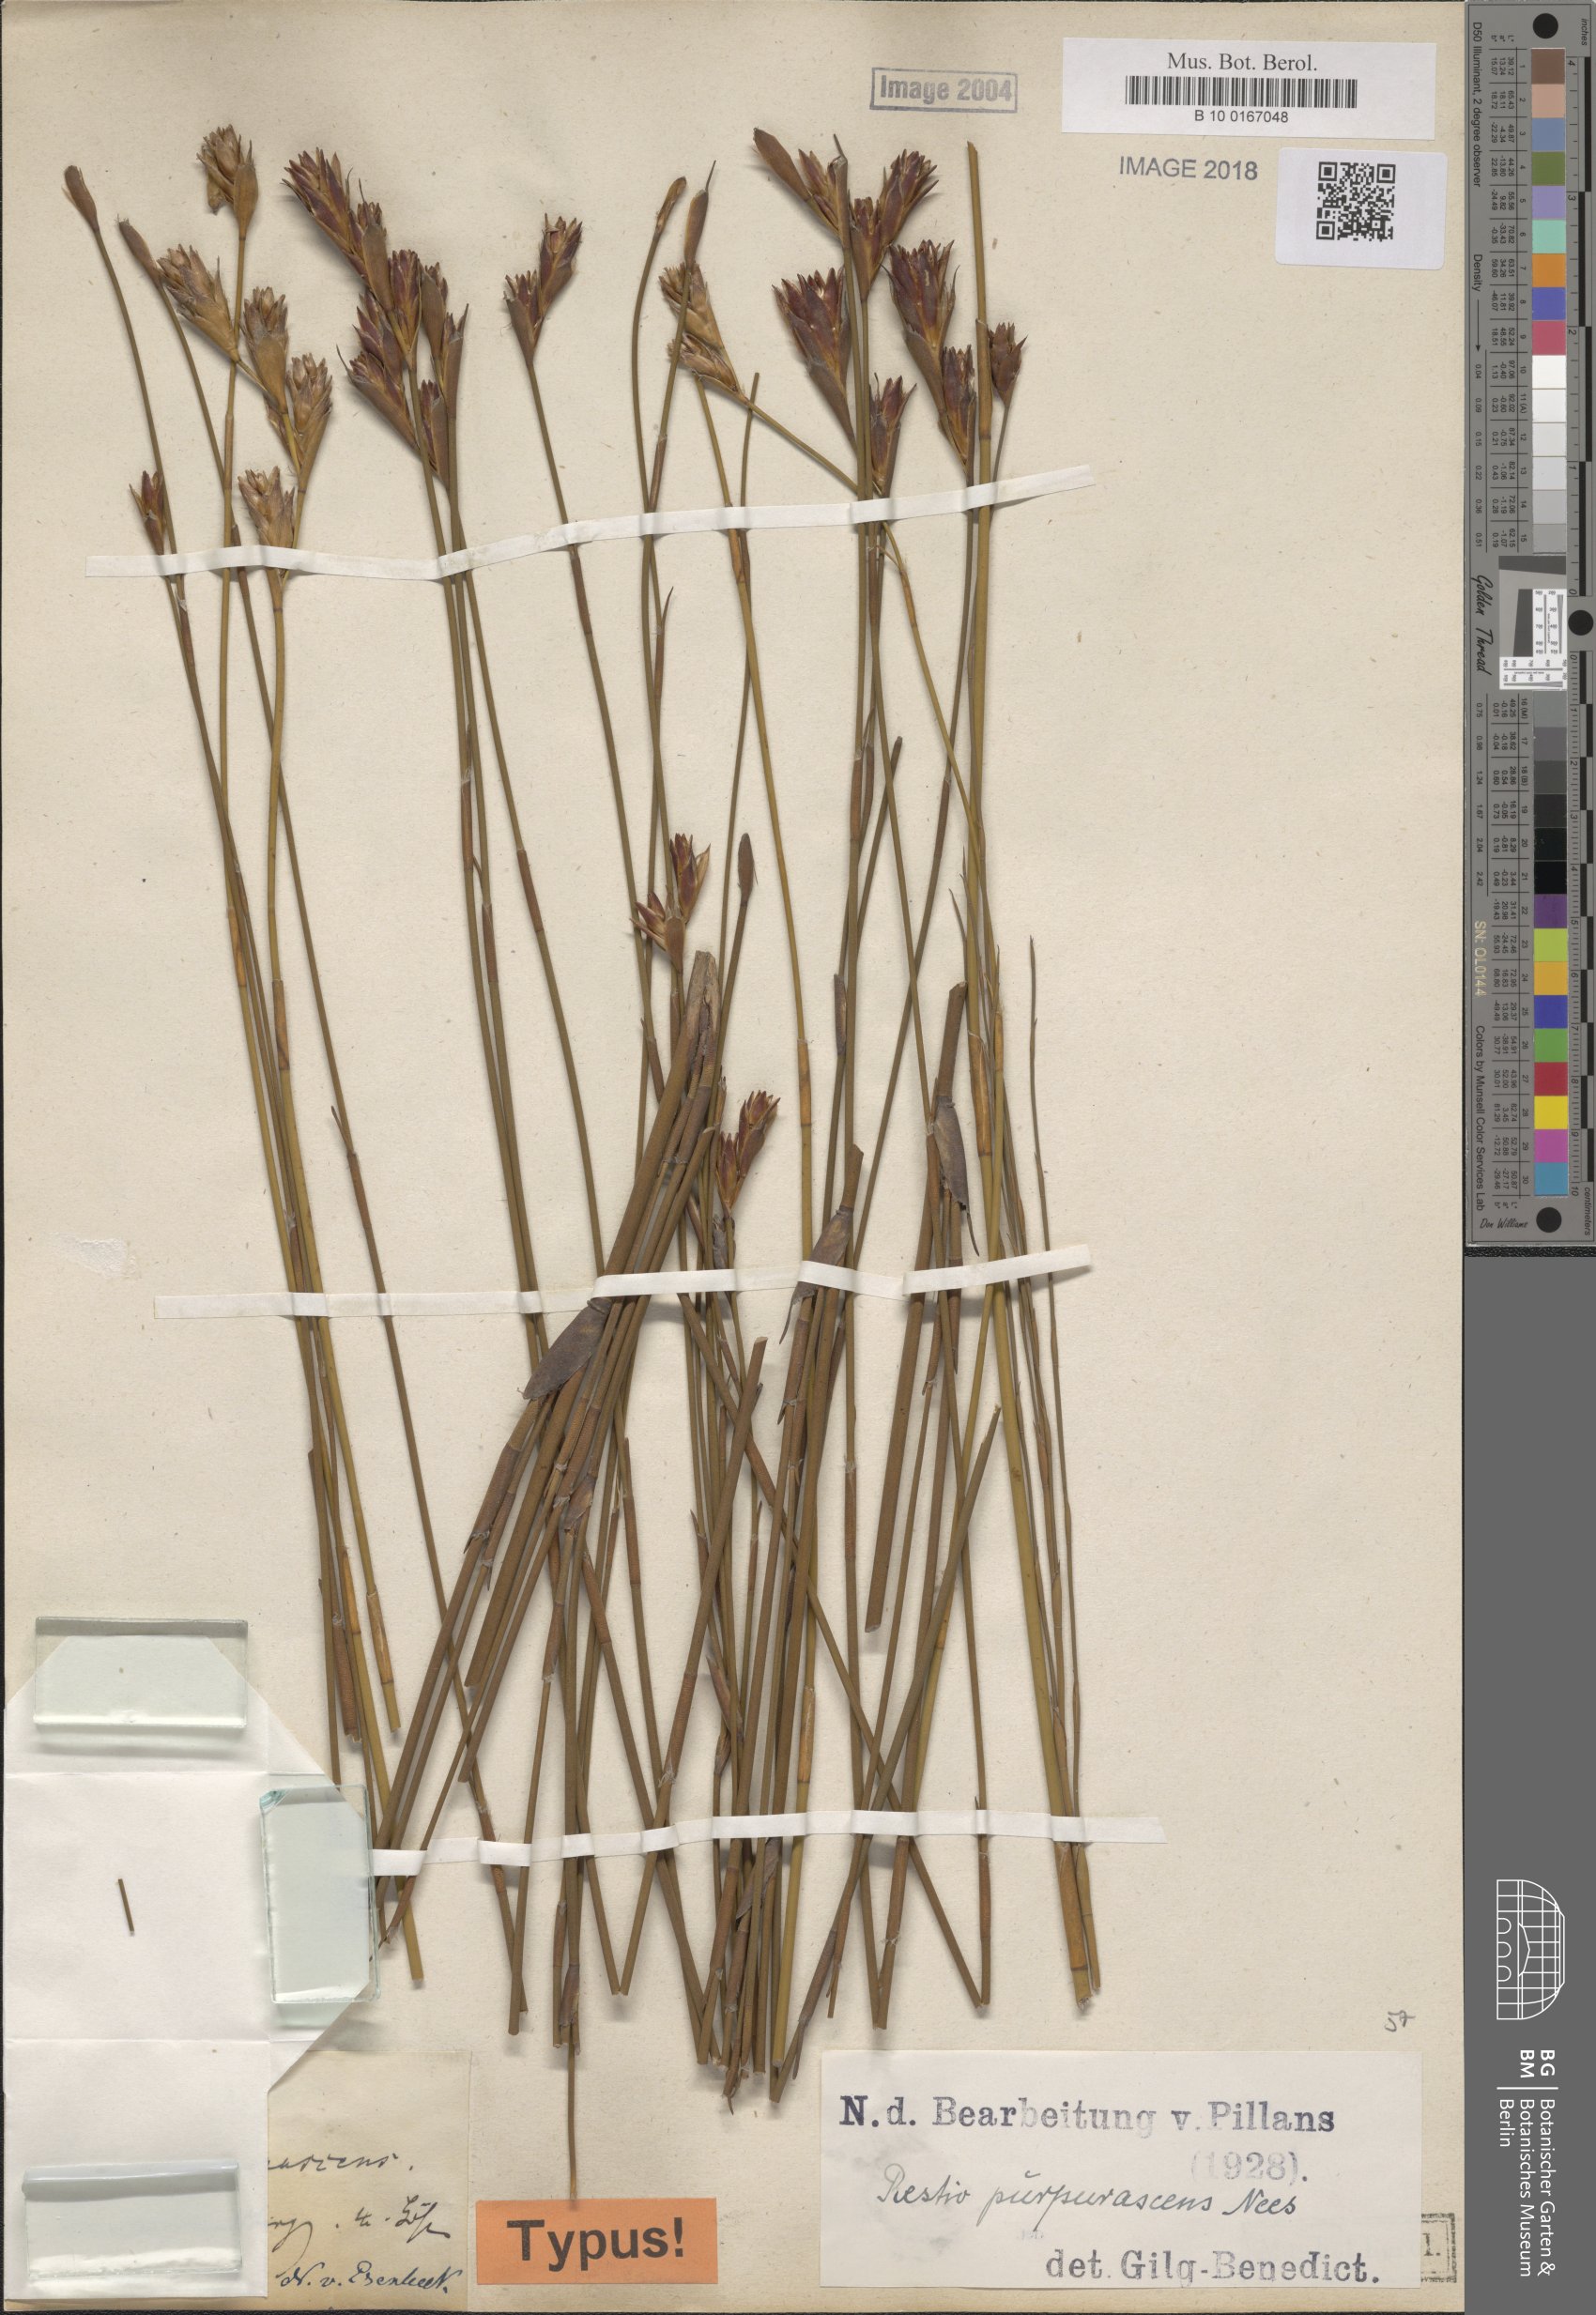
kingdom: Plantae
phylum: Tracheophyta
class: Liliopsida
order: Poales
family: Restionaceae
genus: Restio
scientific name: Restio purpurascens
